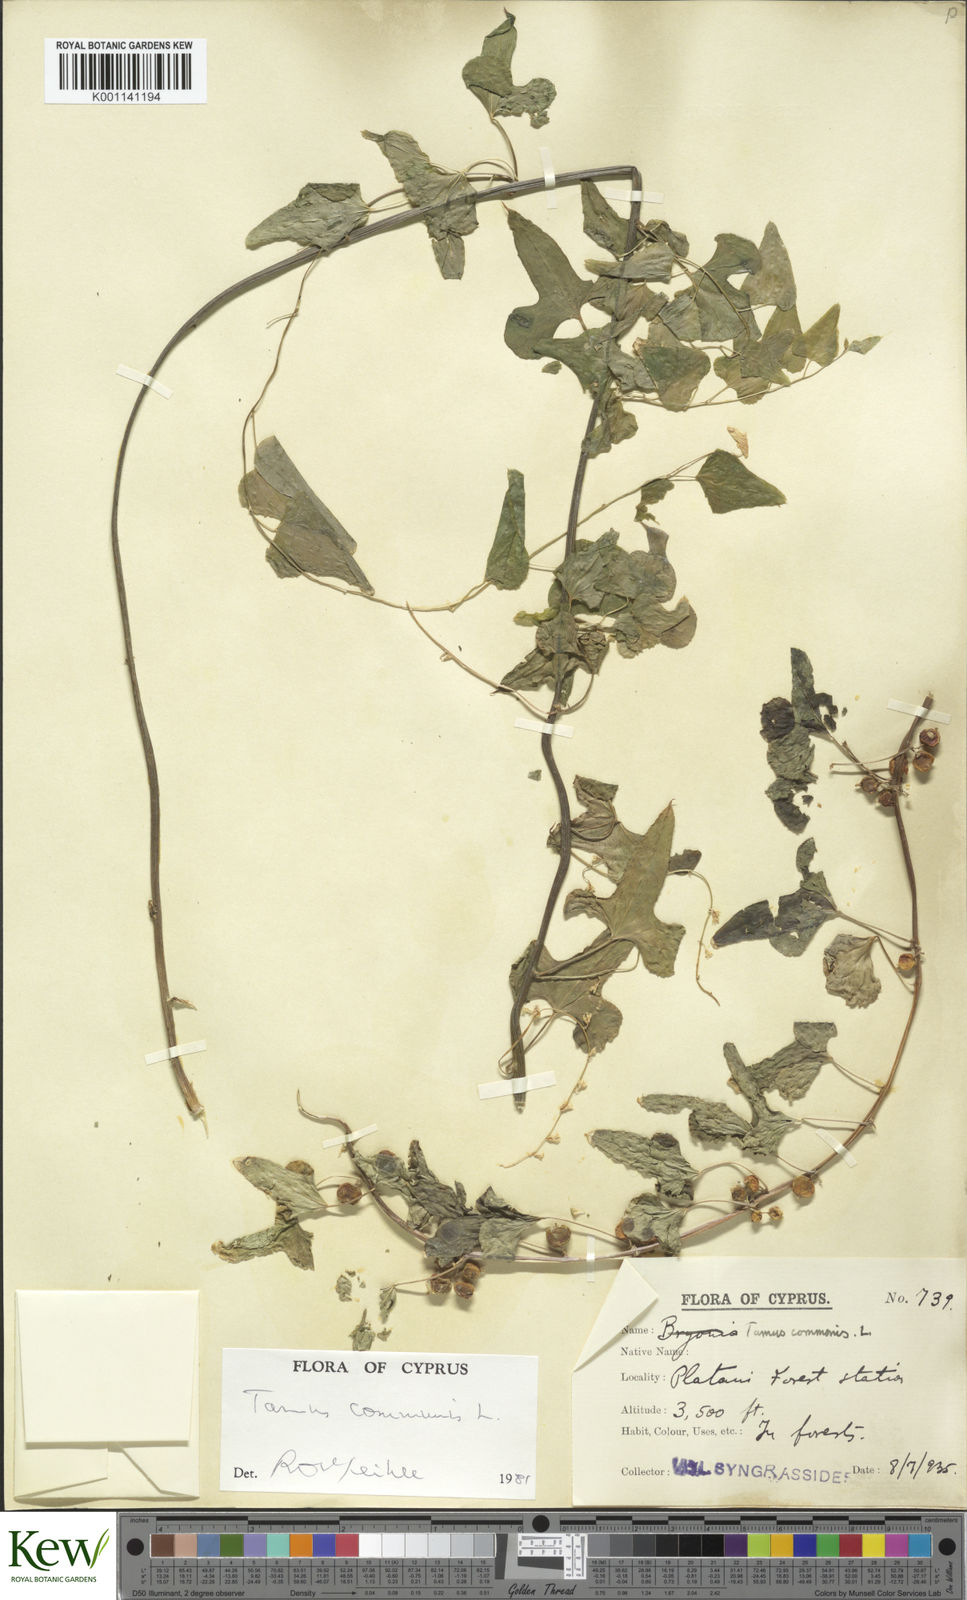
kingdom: Plantae
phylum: Tracheophyta
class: Liliopsida
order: Dioscoreales
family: Dioscoreaceae
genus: Dioscorea
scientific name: Dioscorea communis
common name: Black-bindweed
